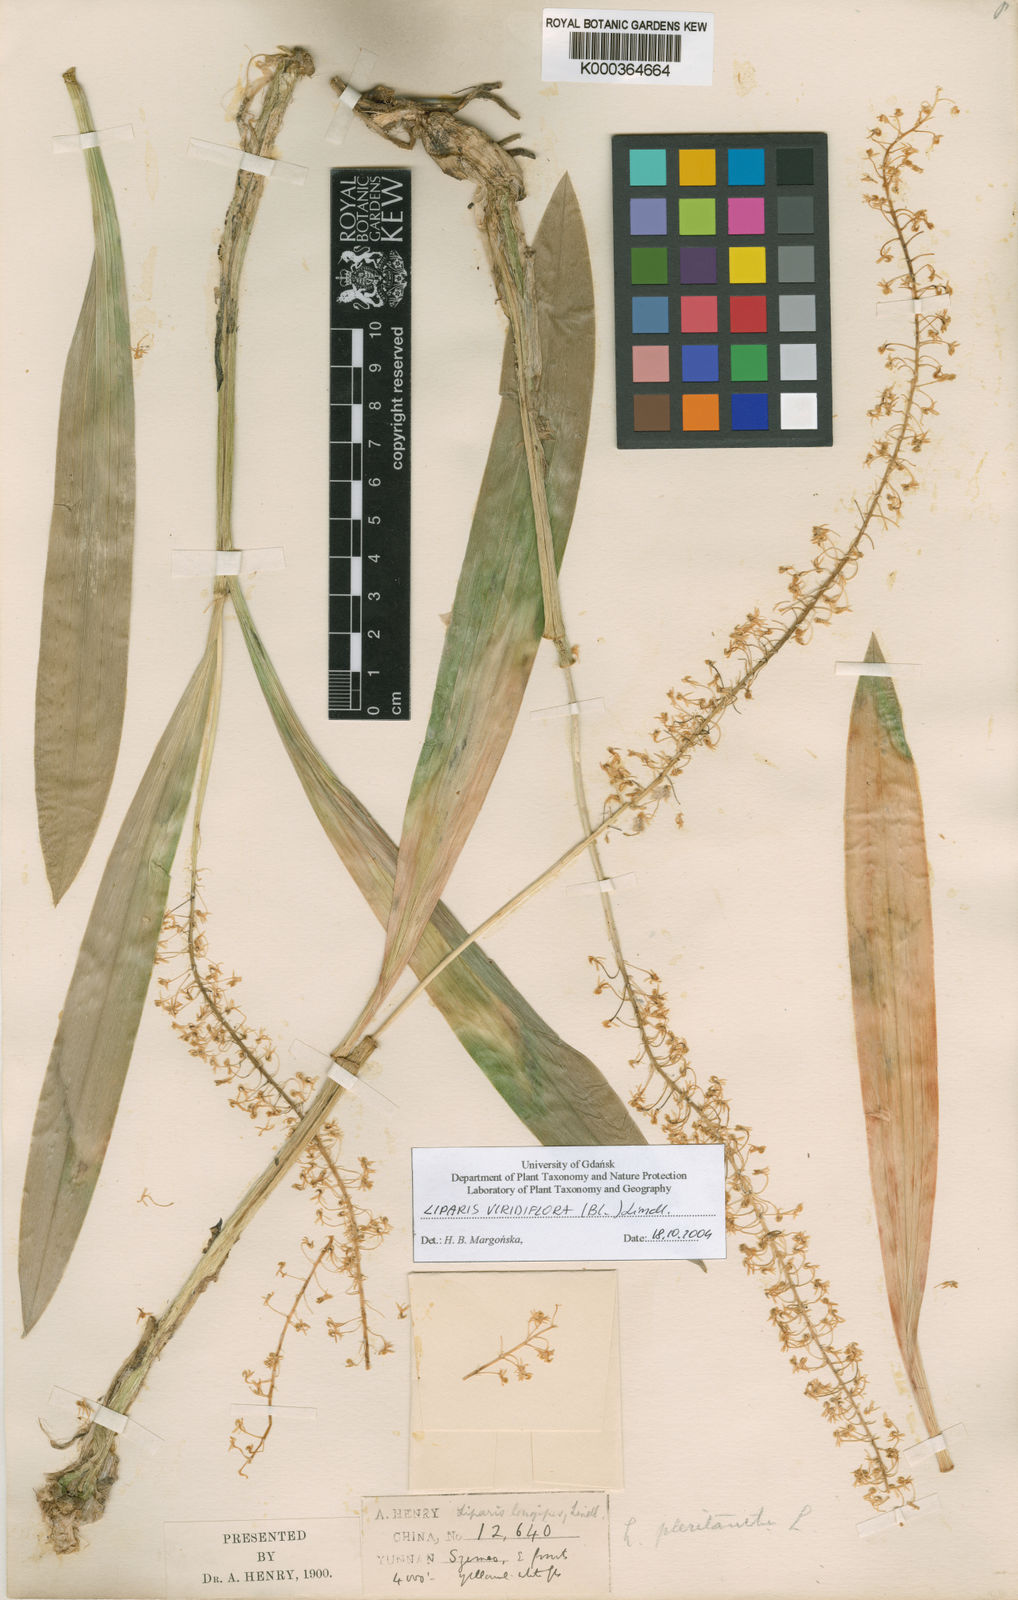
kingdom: Plantae
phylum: Tracheophyta
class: Liliopsida
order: Asparagales
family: Orchidaceae
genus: Liparis
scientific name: Liparis viridiflora
